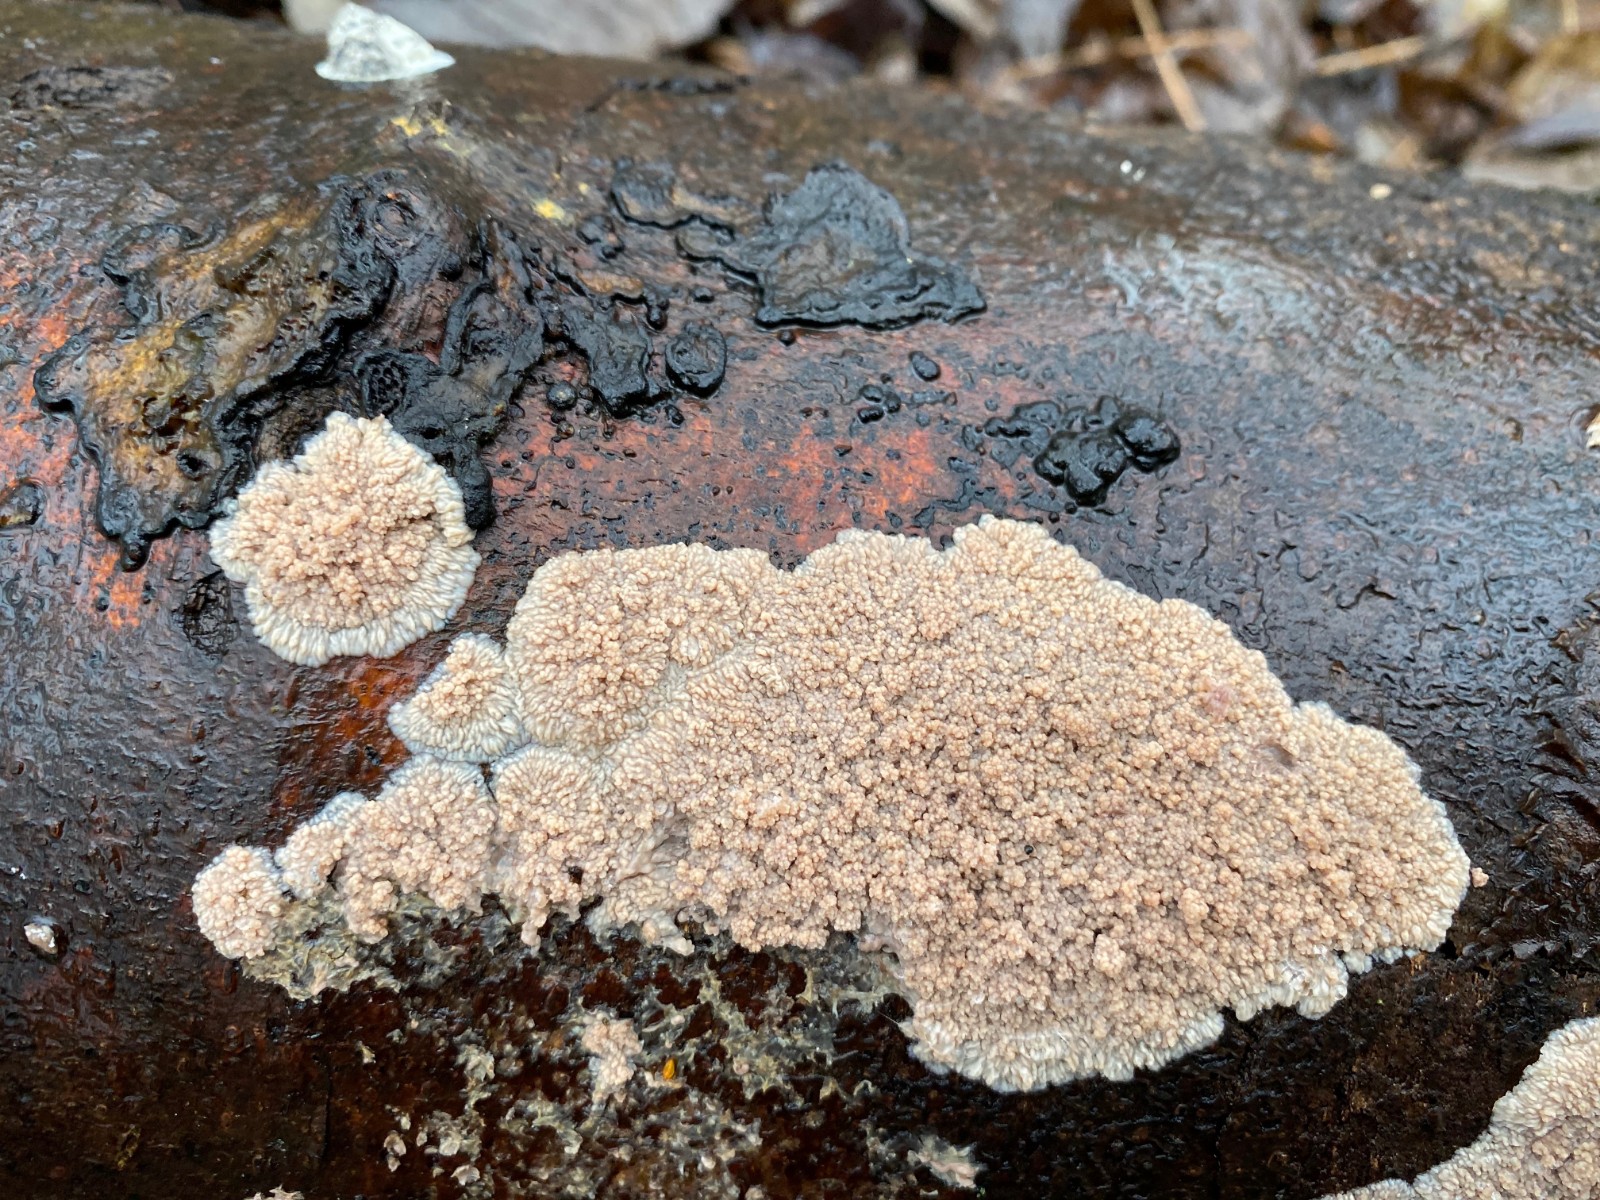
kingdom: Fungi
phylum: Basidiomycota
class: Agaricomycetes
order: Polyporales
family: Meruliaceae
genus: Phlebia
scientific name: Phlebia radiata
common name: stråle-åresvamp
